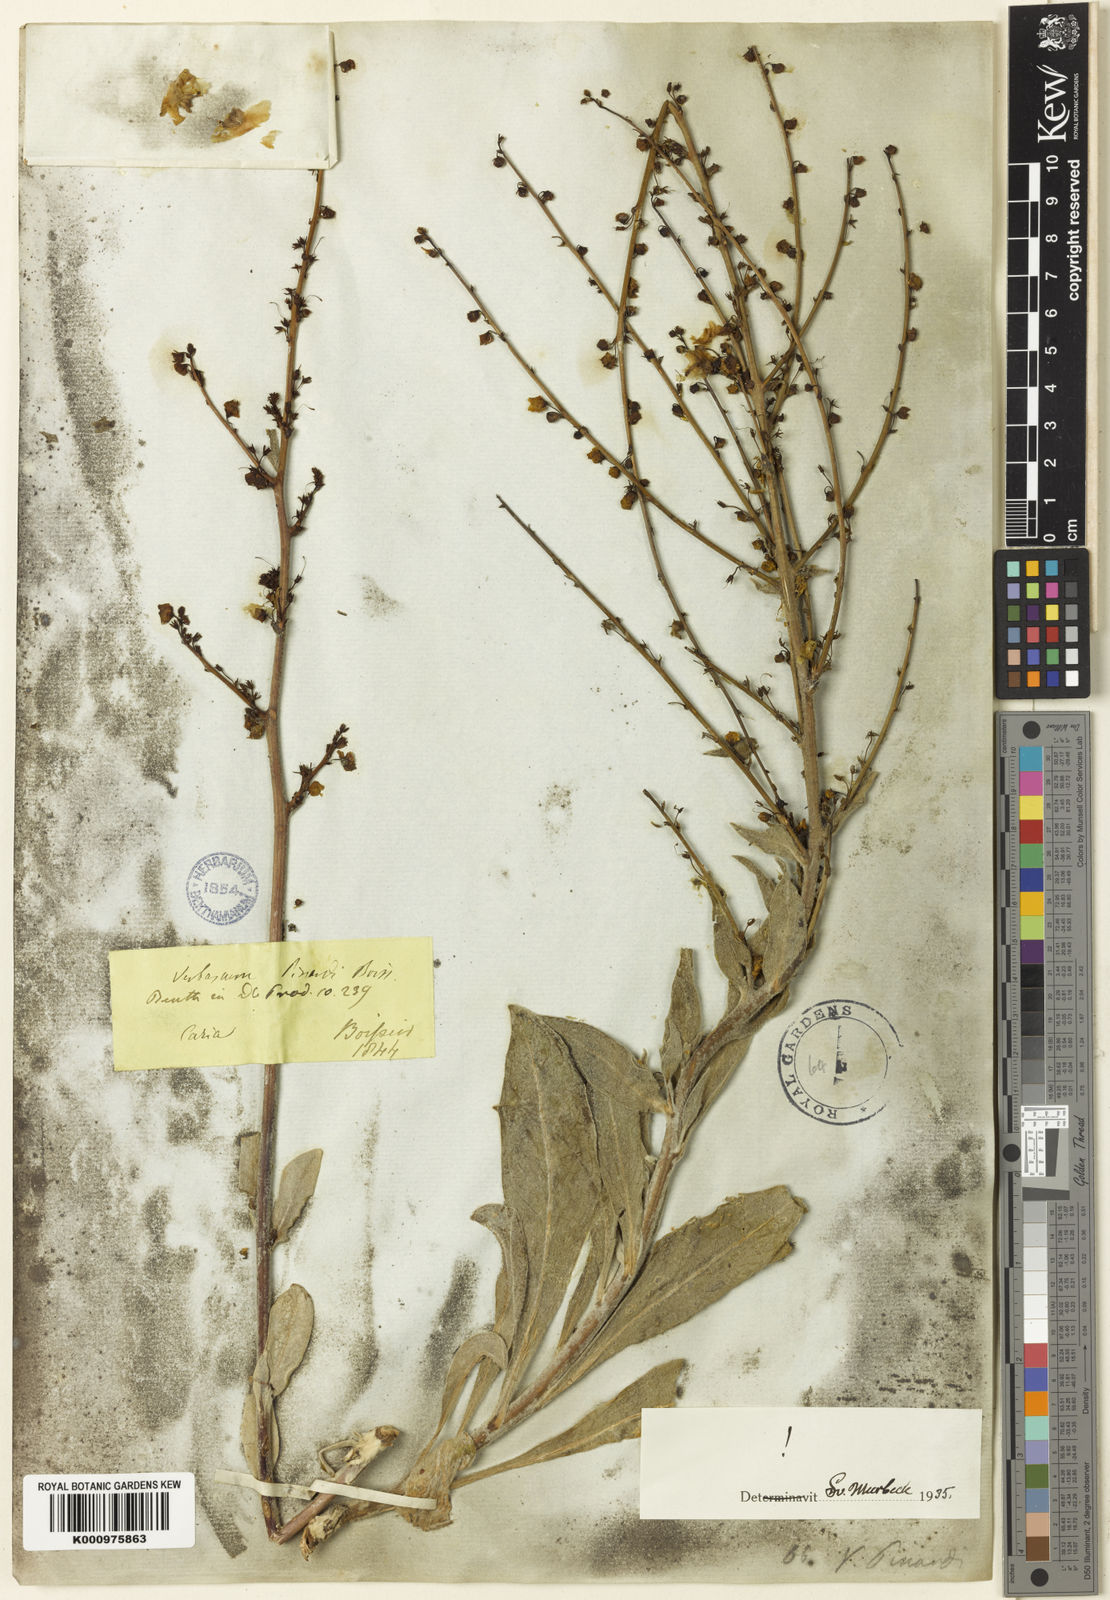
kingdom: Plantae
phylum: Tracheophyta
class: Magnoliopsida
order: Lamiales
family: Scrophulariaceae
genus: Verbascum
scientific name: Verbascum pinardii
